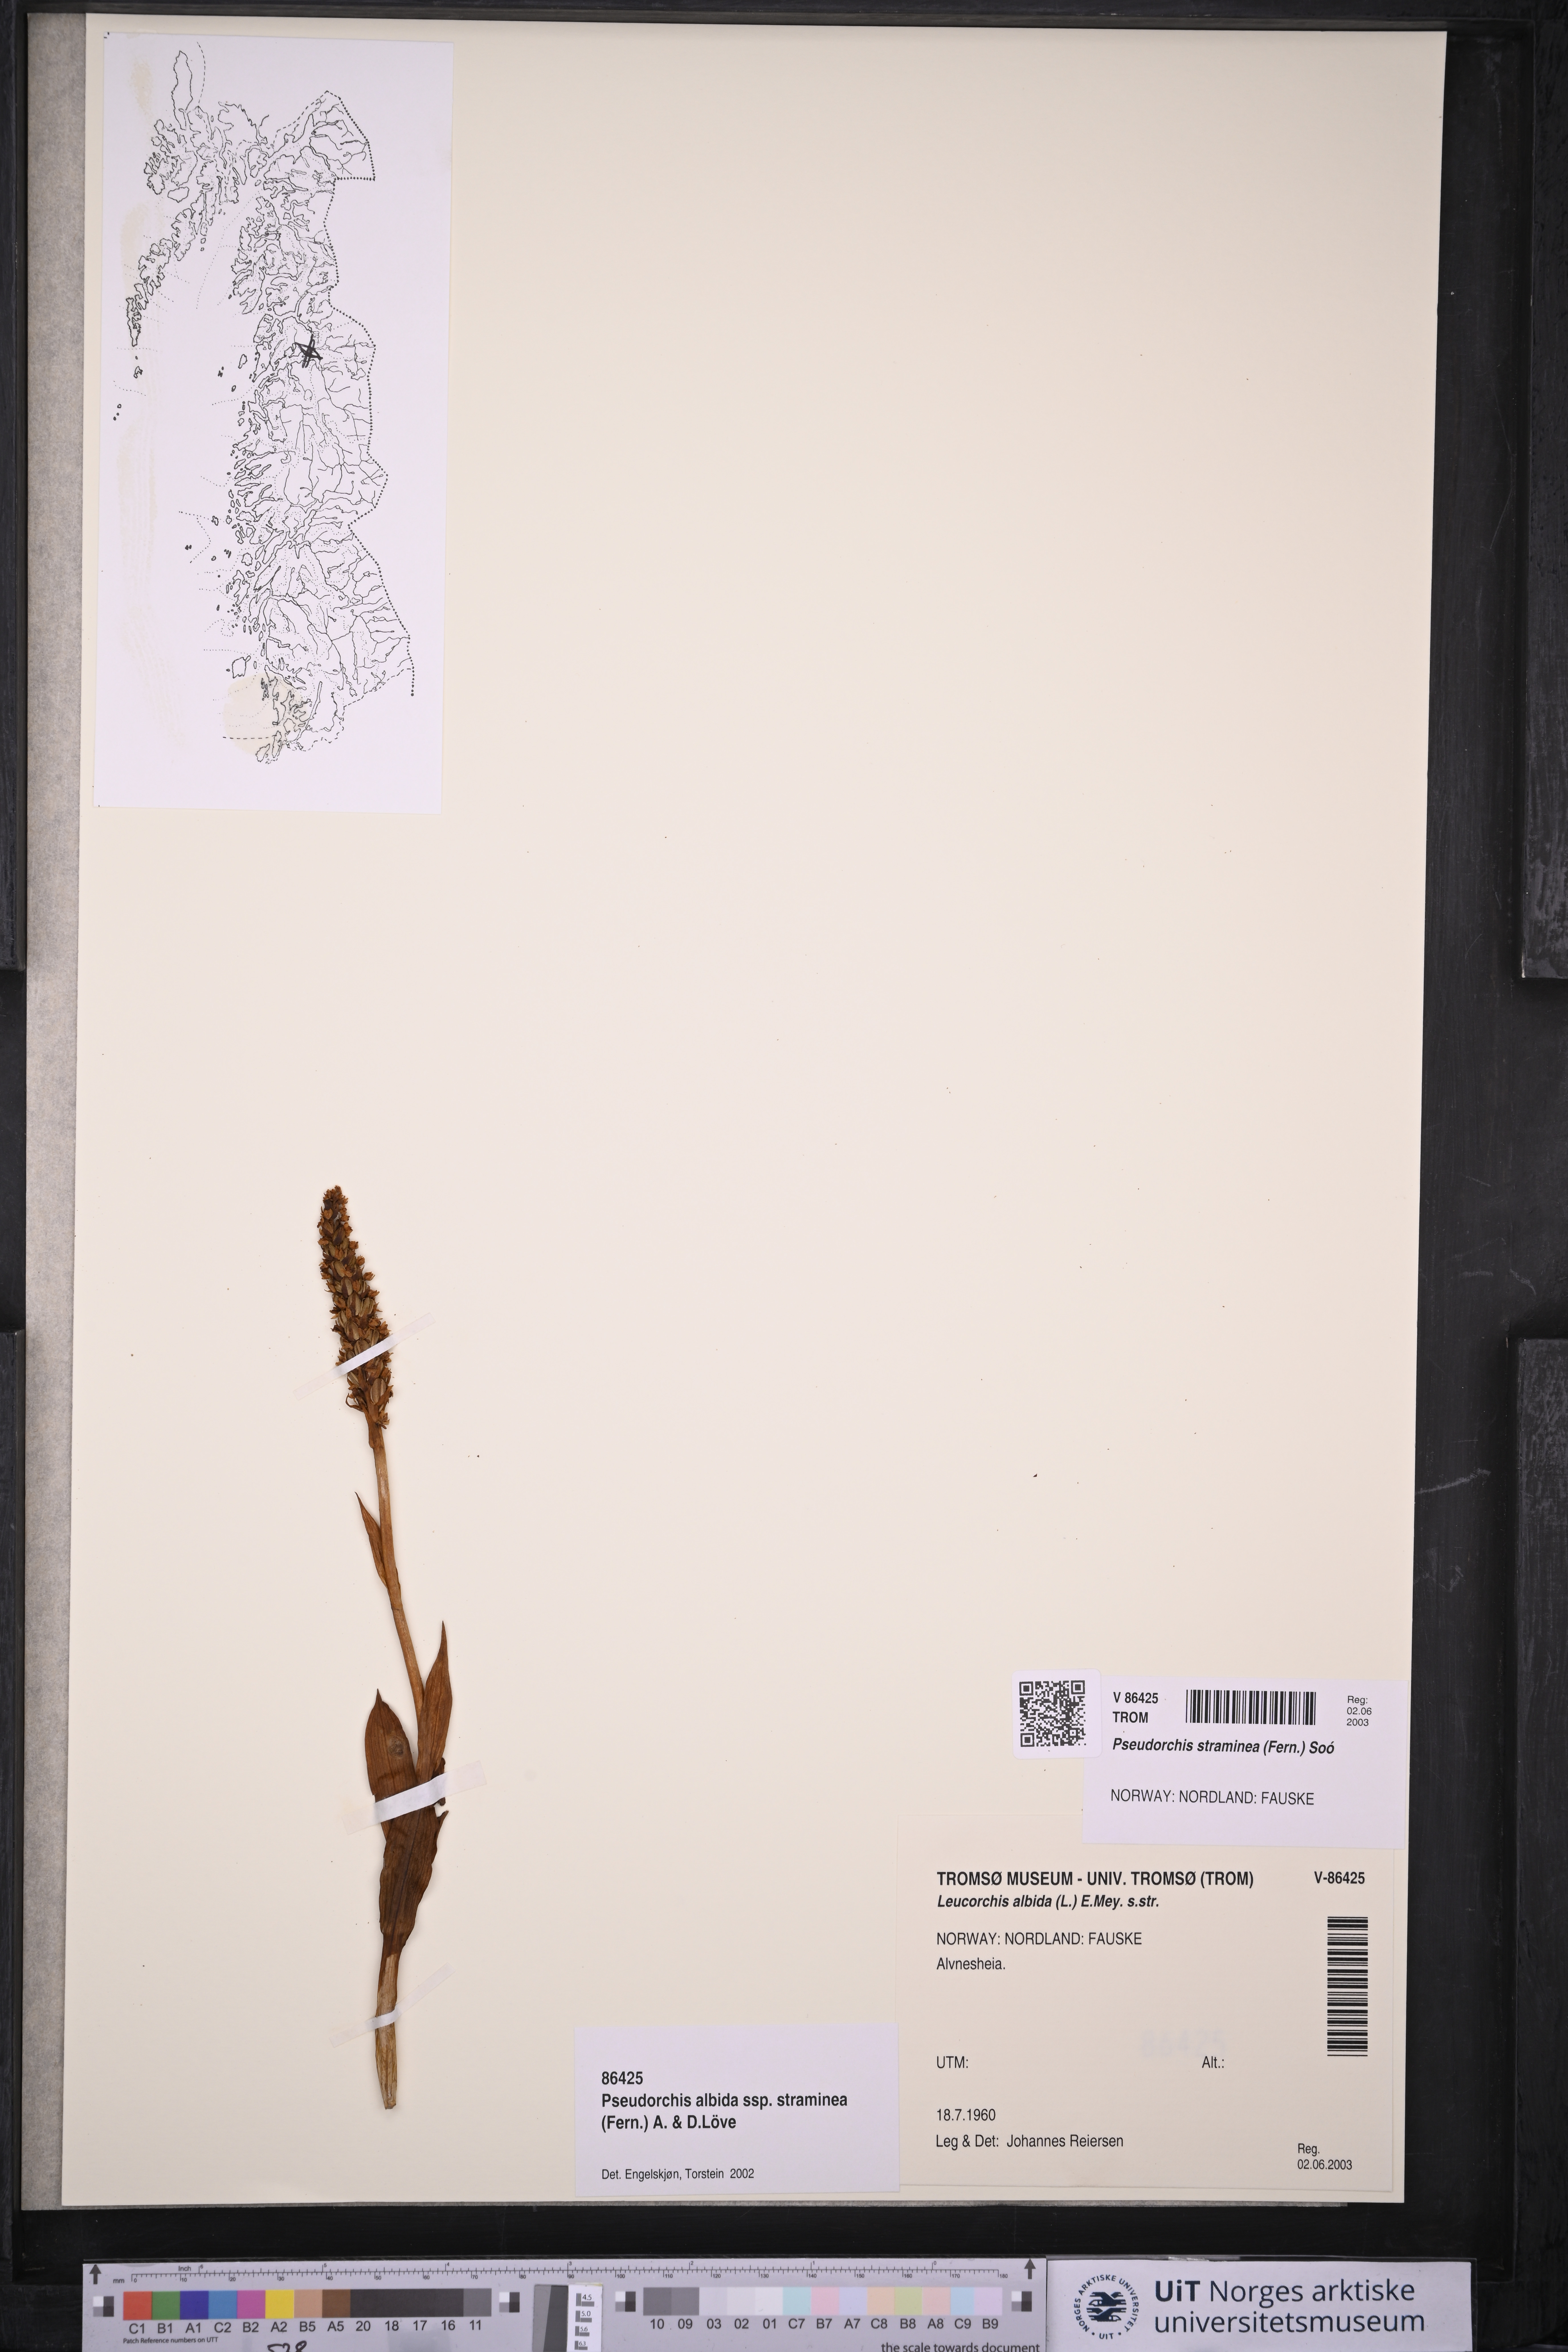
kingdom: Plantae
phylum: Tracheophyta
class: Liliopsida
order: Asparagales
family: Orchidaceae
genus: Pseudorchis
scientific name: Pseudorchis straminea
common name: Vanilla-scented bog orchid
